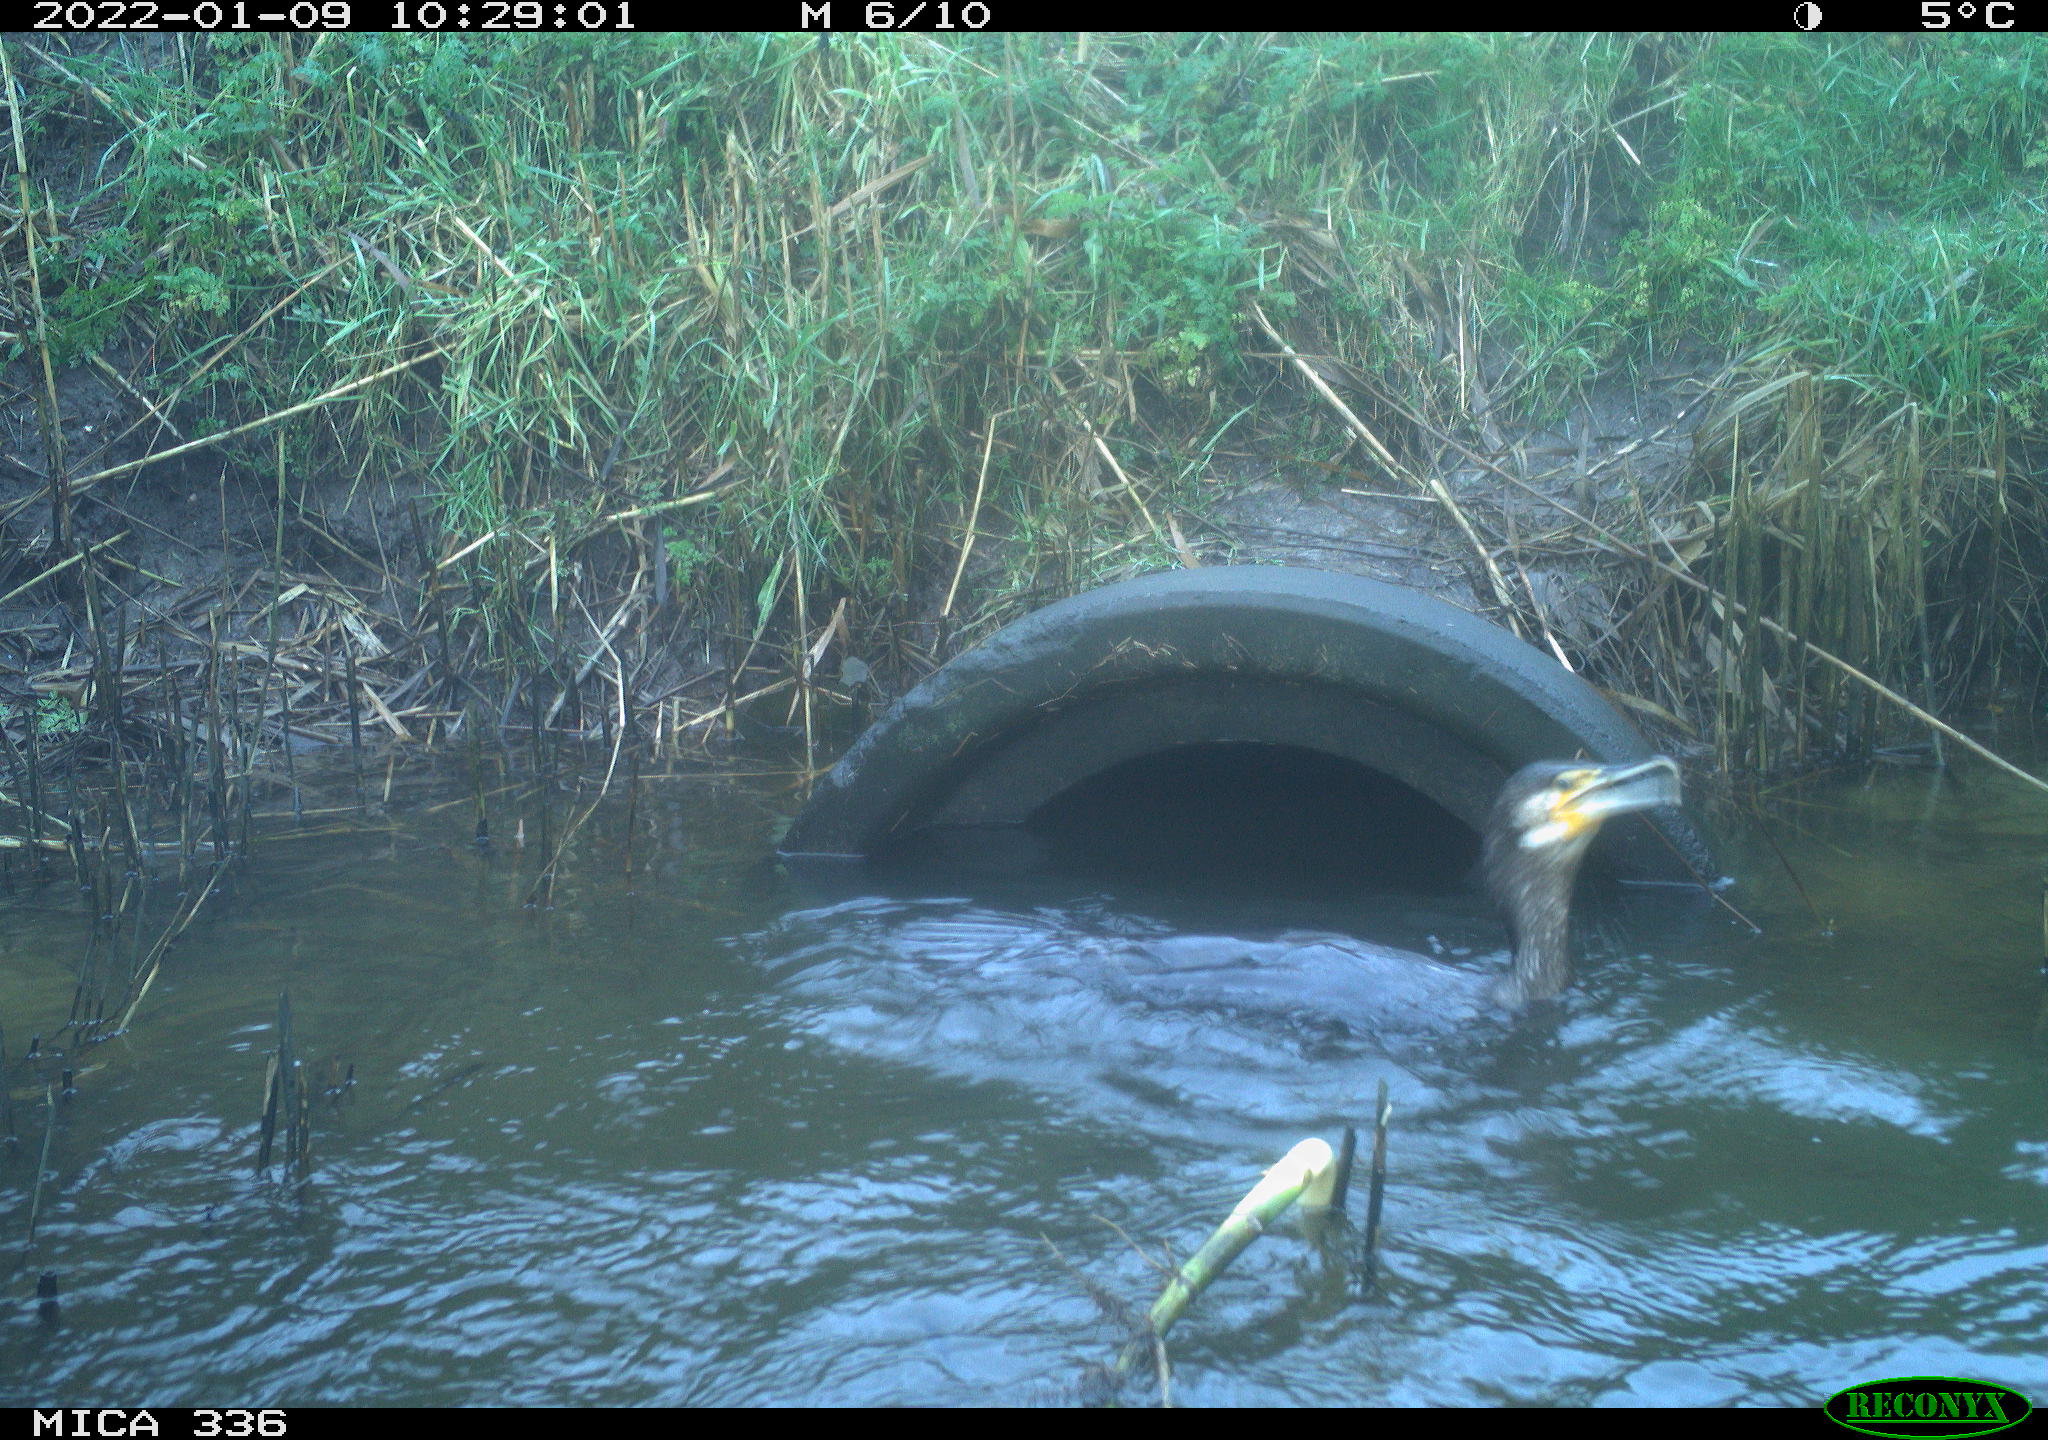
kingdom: Animalia
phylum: Chordata
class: Aves
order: Suliformes
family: Phalacrocoracidae
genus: Phalacrocorax
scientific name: Phalacrocorax carbo
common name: Great cormorant
